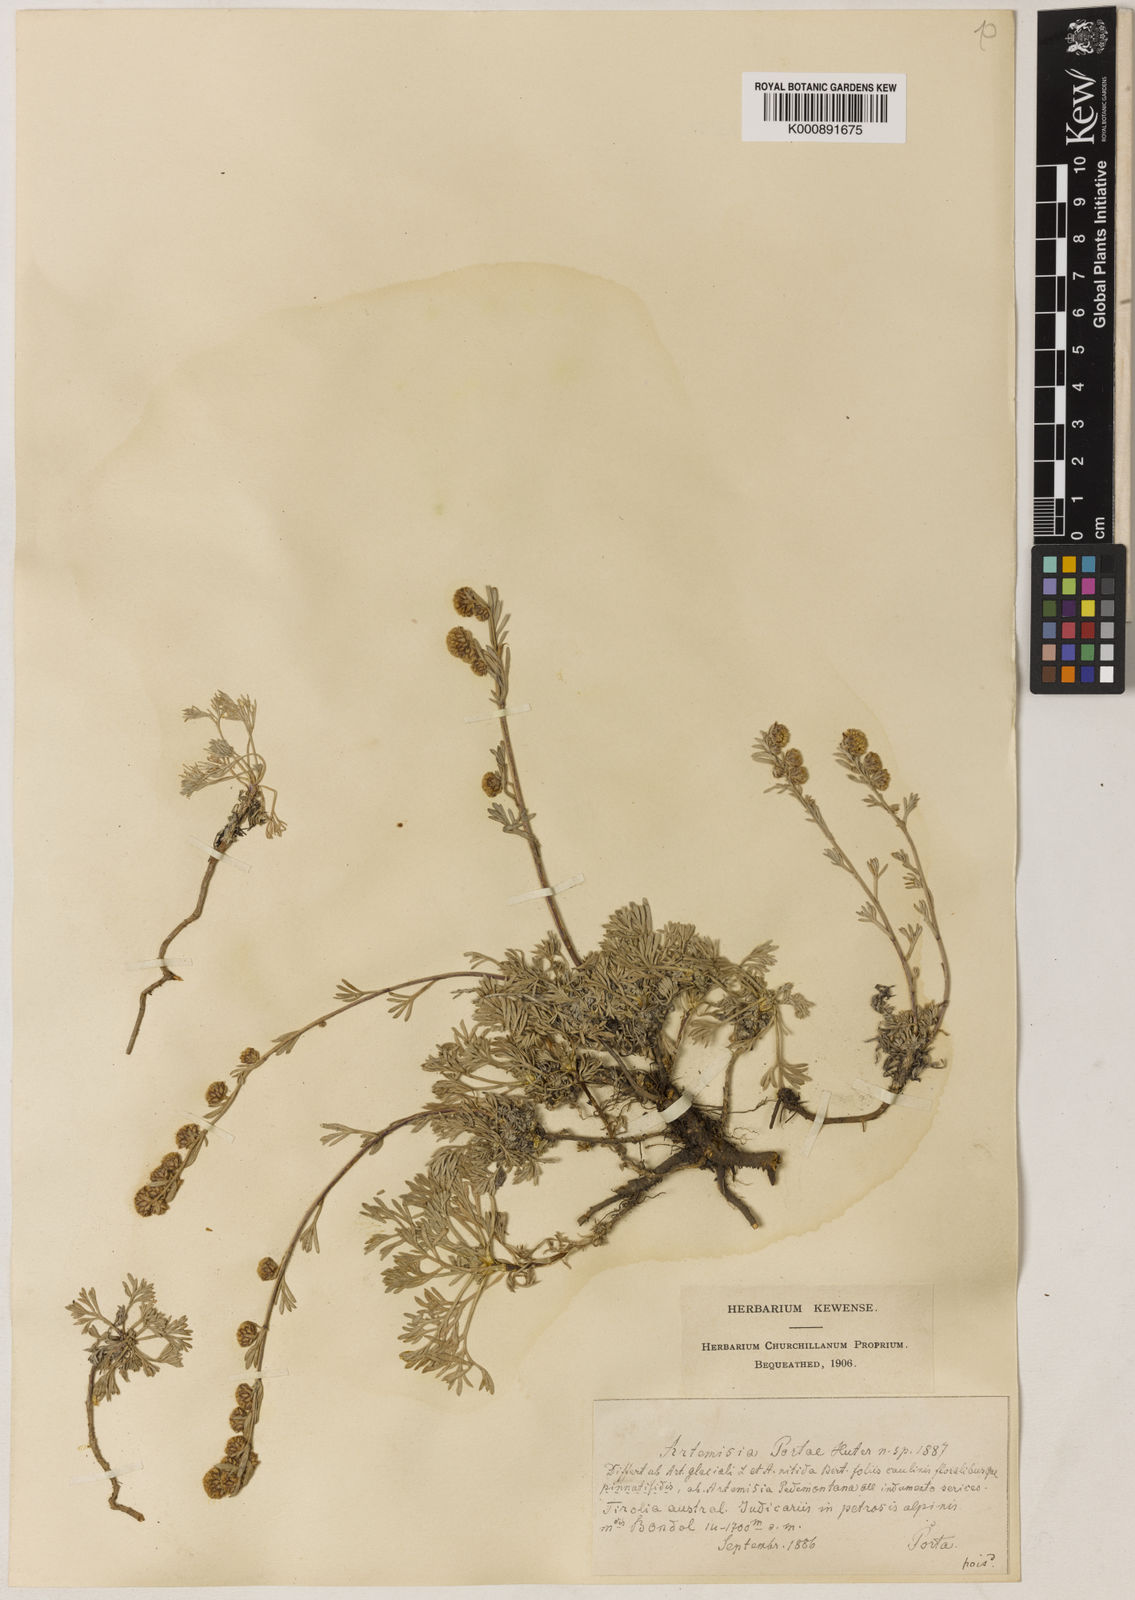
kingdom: Plantae
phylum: Tracheophyta
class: Magnoliopsida
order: Asterales
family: Asteraceae
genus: Artemisia
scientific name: Artemisia nitida
